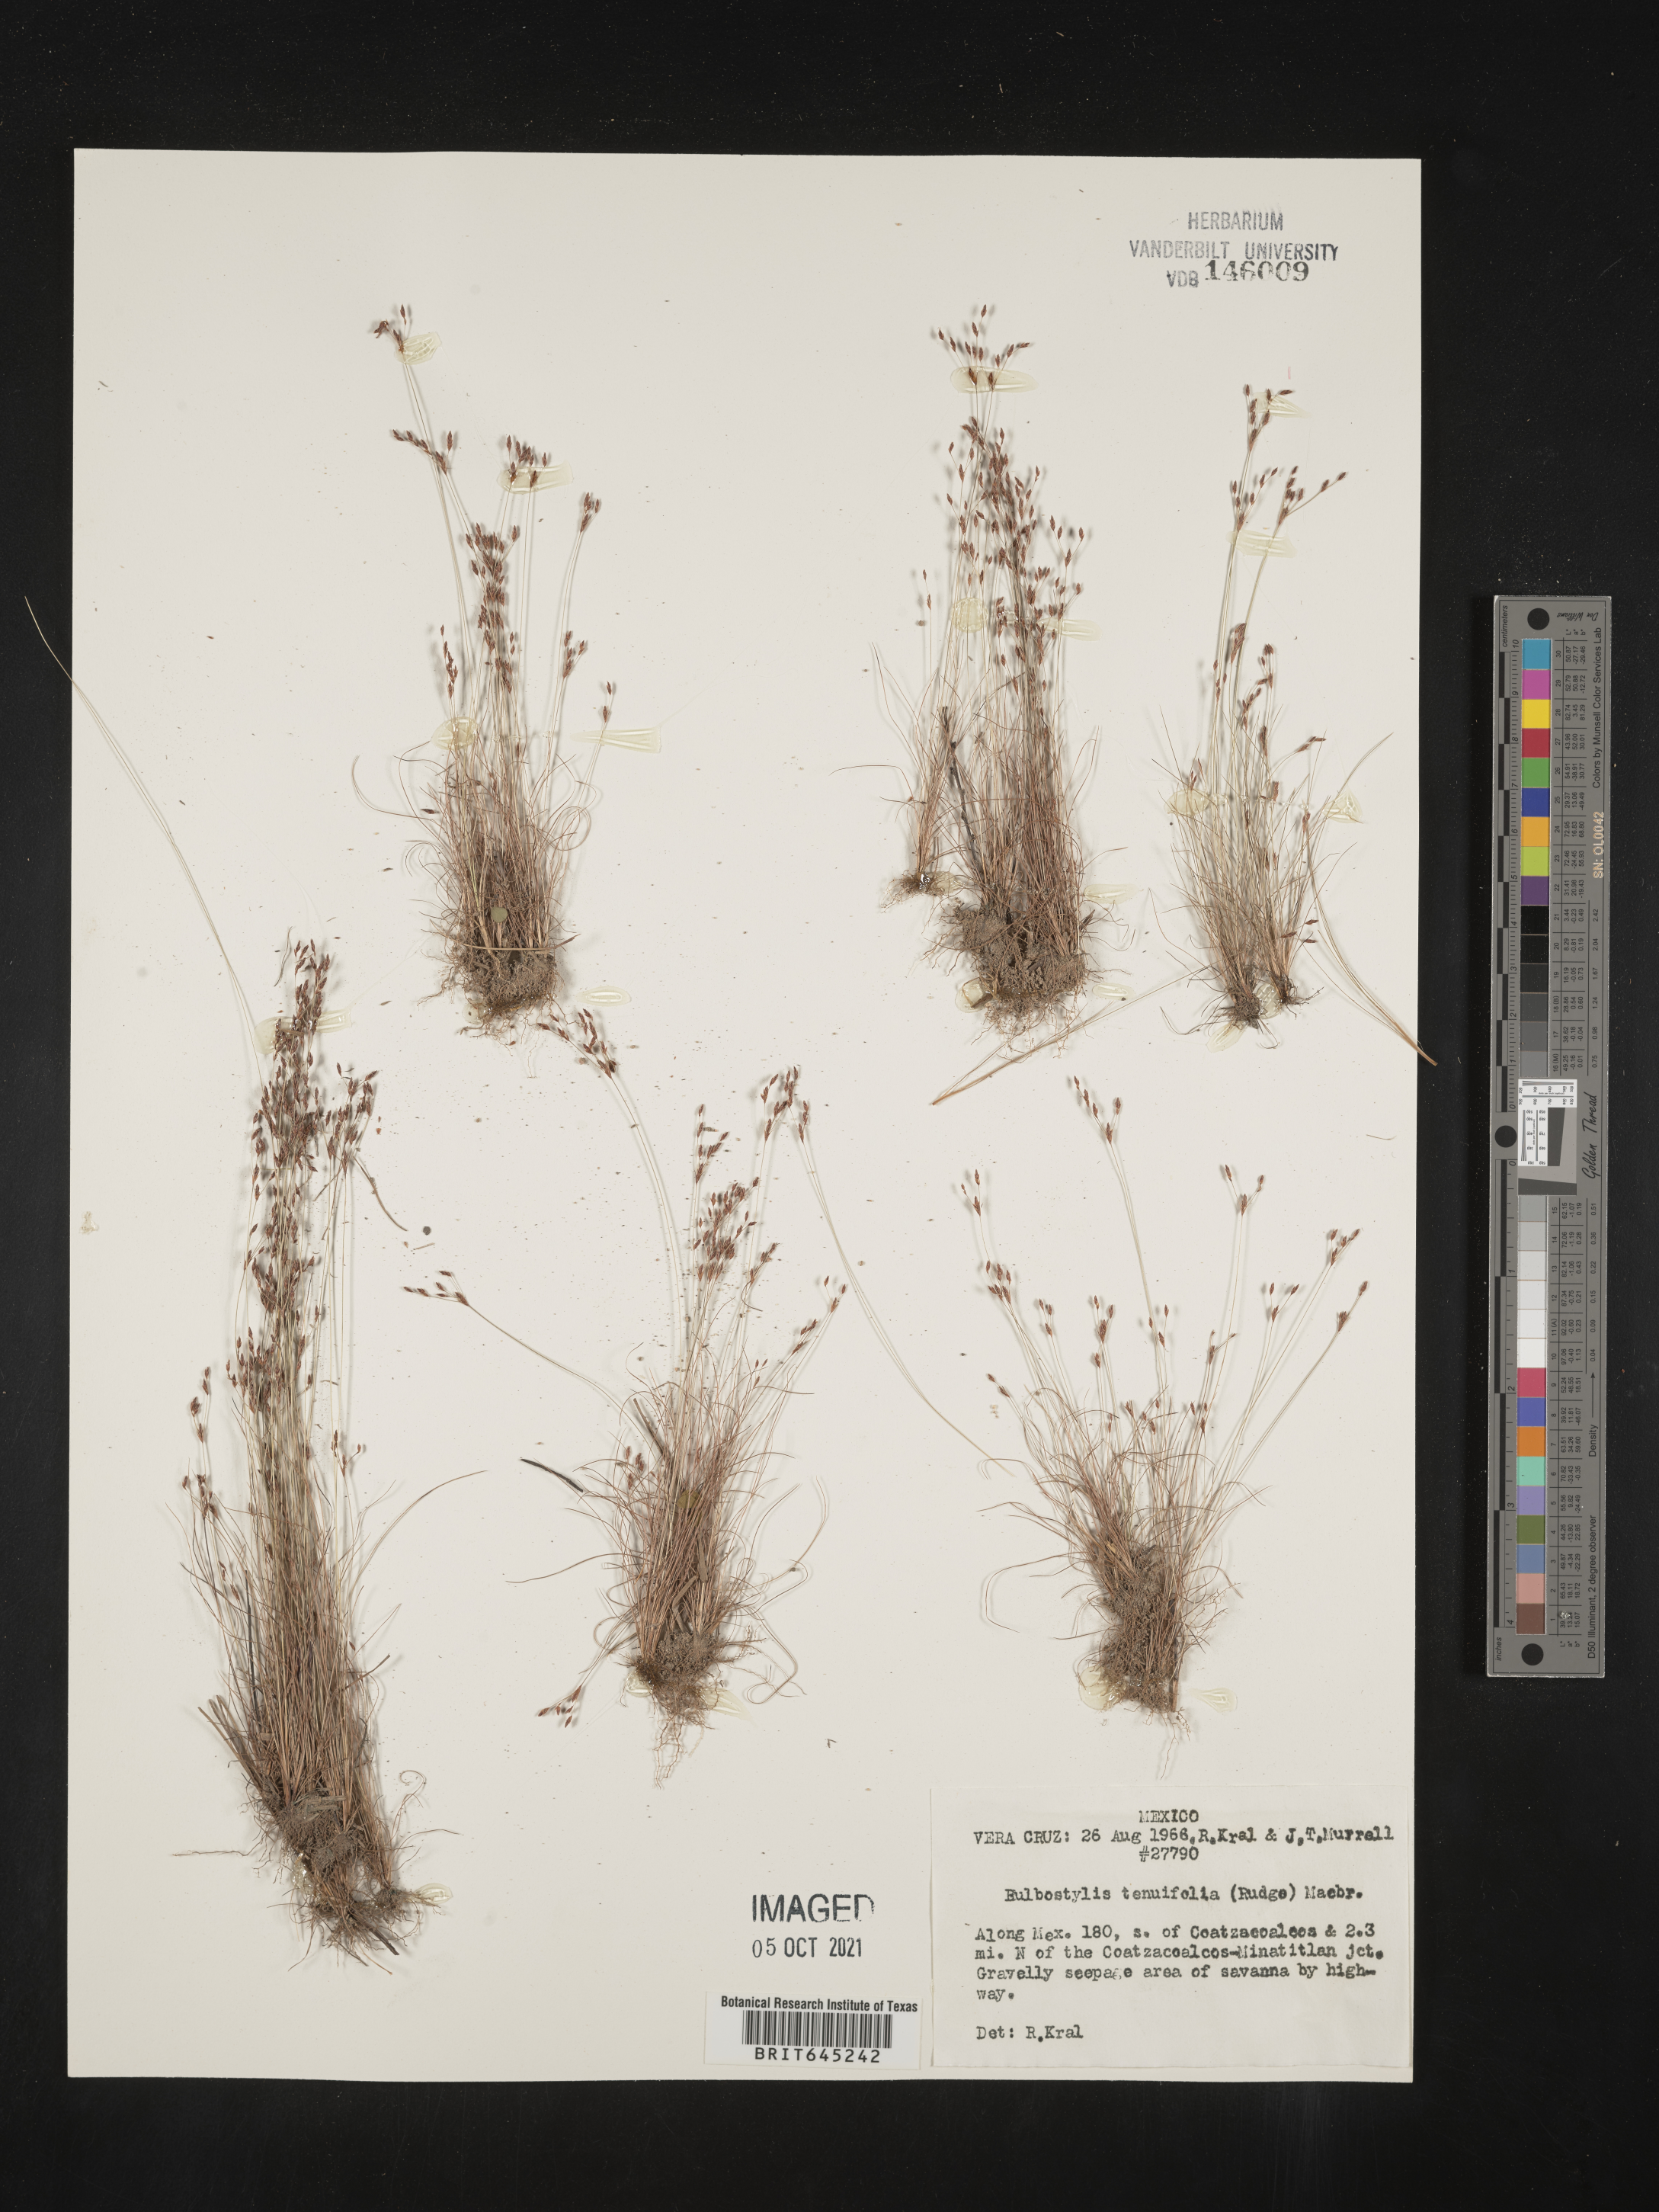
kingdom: Plantae
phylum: Tracheophyta
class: Liliopsida
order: Poales
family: Cyperaceae
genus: Eleocharis
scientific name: Eleocharis Bulbostylis tenuifolia
